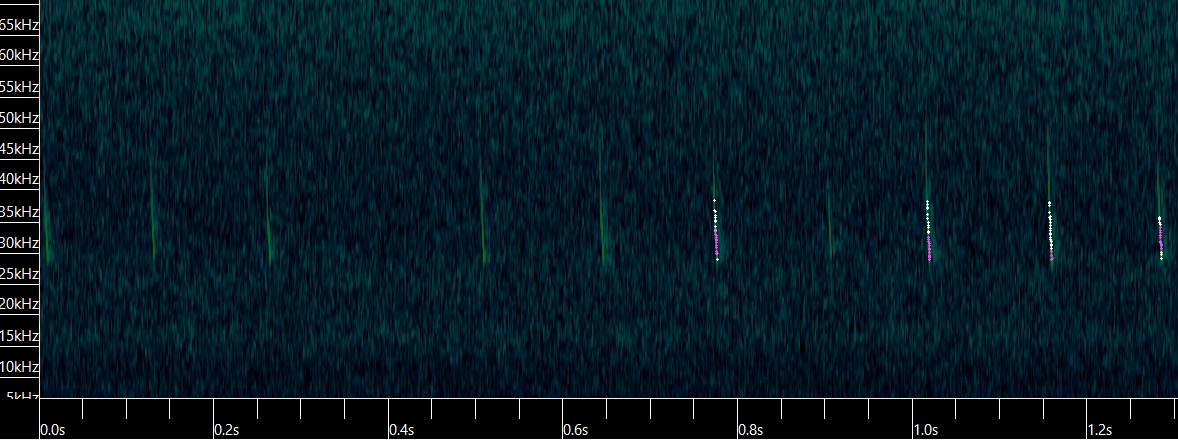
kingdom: Animalia
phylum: Chordata
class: Mammalia
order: Chiroptera
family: Vespertilionidae
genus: Eptesicus
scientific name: Eptesicus serotinus
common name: Sydflagermus
